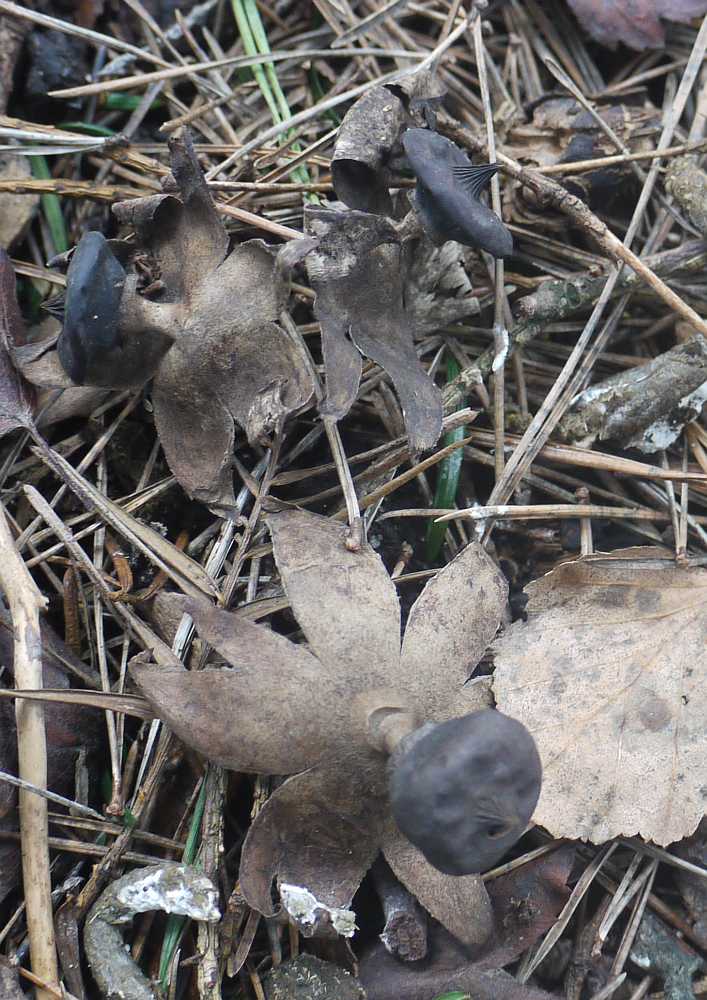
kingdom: Fungi
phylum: Basidiomycota
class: Agaricomycetes
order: Geastrales
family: Geastraceae
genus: Geastrum
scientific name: Geastrum striatum
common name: krave-stjernebold
